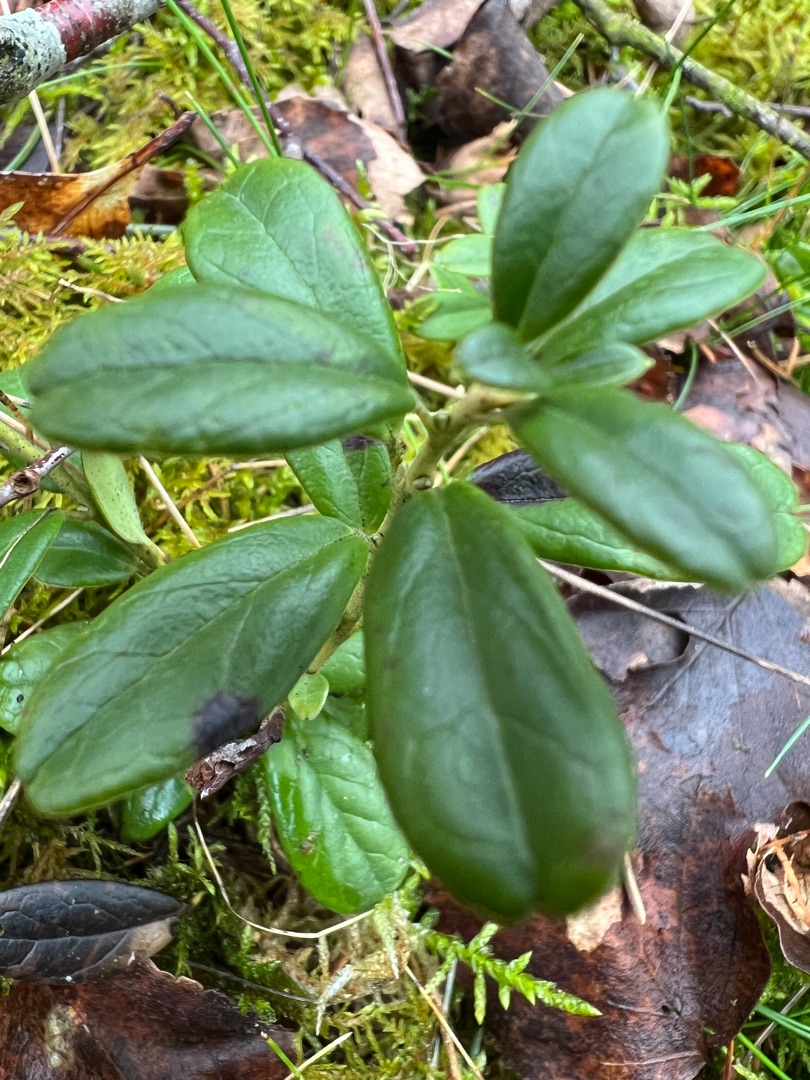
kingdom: Plantae
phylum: Tracheophyta
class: Magnoliopsida
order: Ericales
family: Ericaceae
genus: Vaccinium
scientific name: Vaccinium vitis-idaea
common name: Tyttebær
